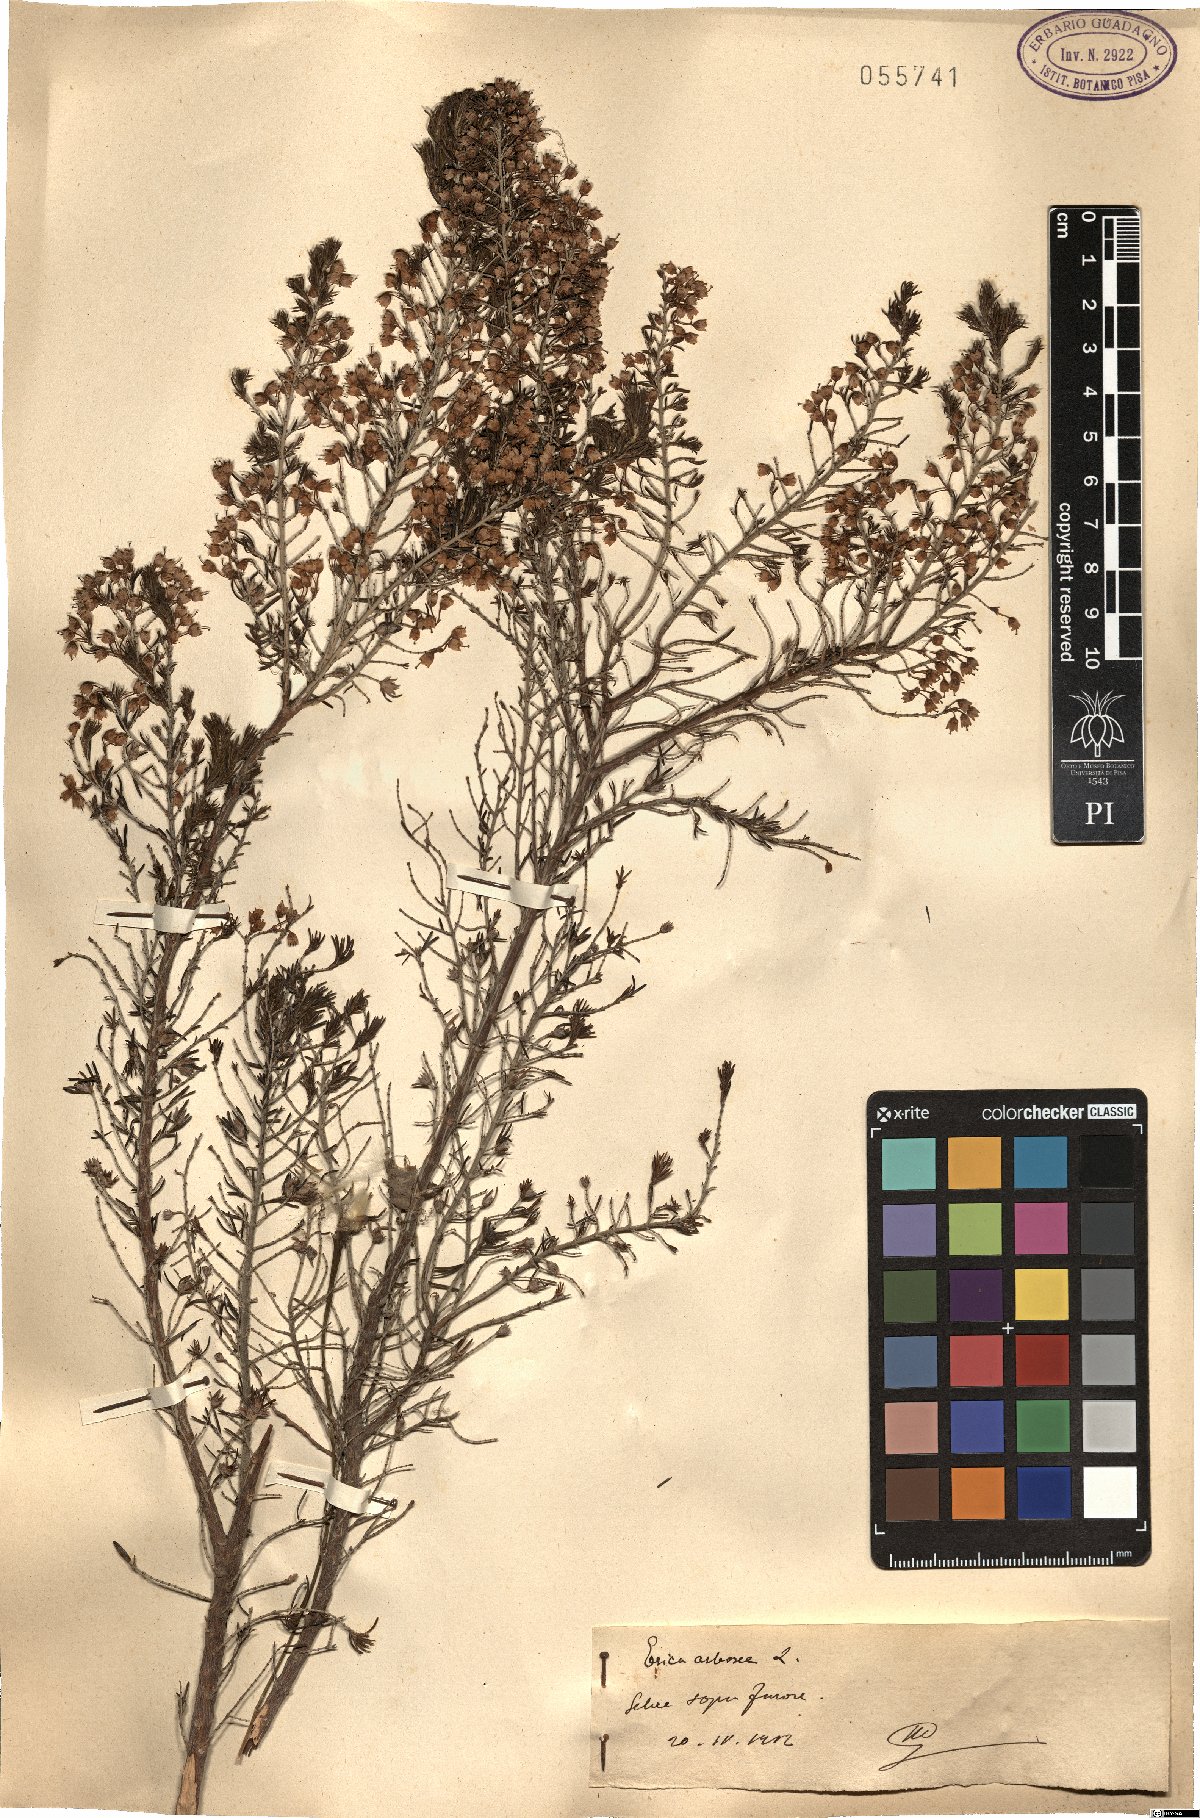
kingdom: Plantae
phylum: Tracheophyta
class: Magnoliopsida
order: Ericales
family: Ericaceae
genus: Erica
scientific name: Erica arborea
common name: Tree heath
